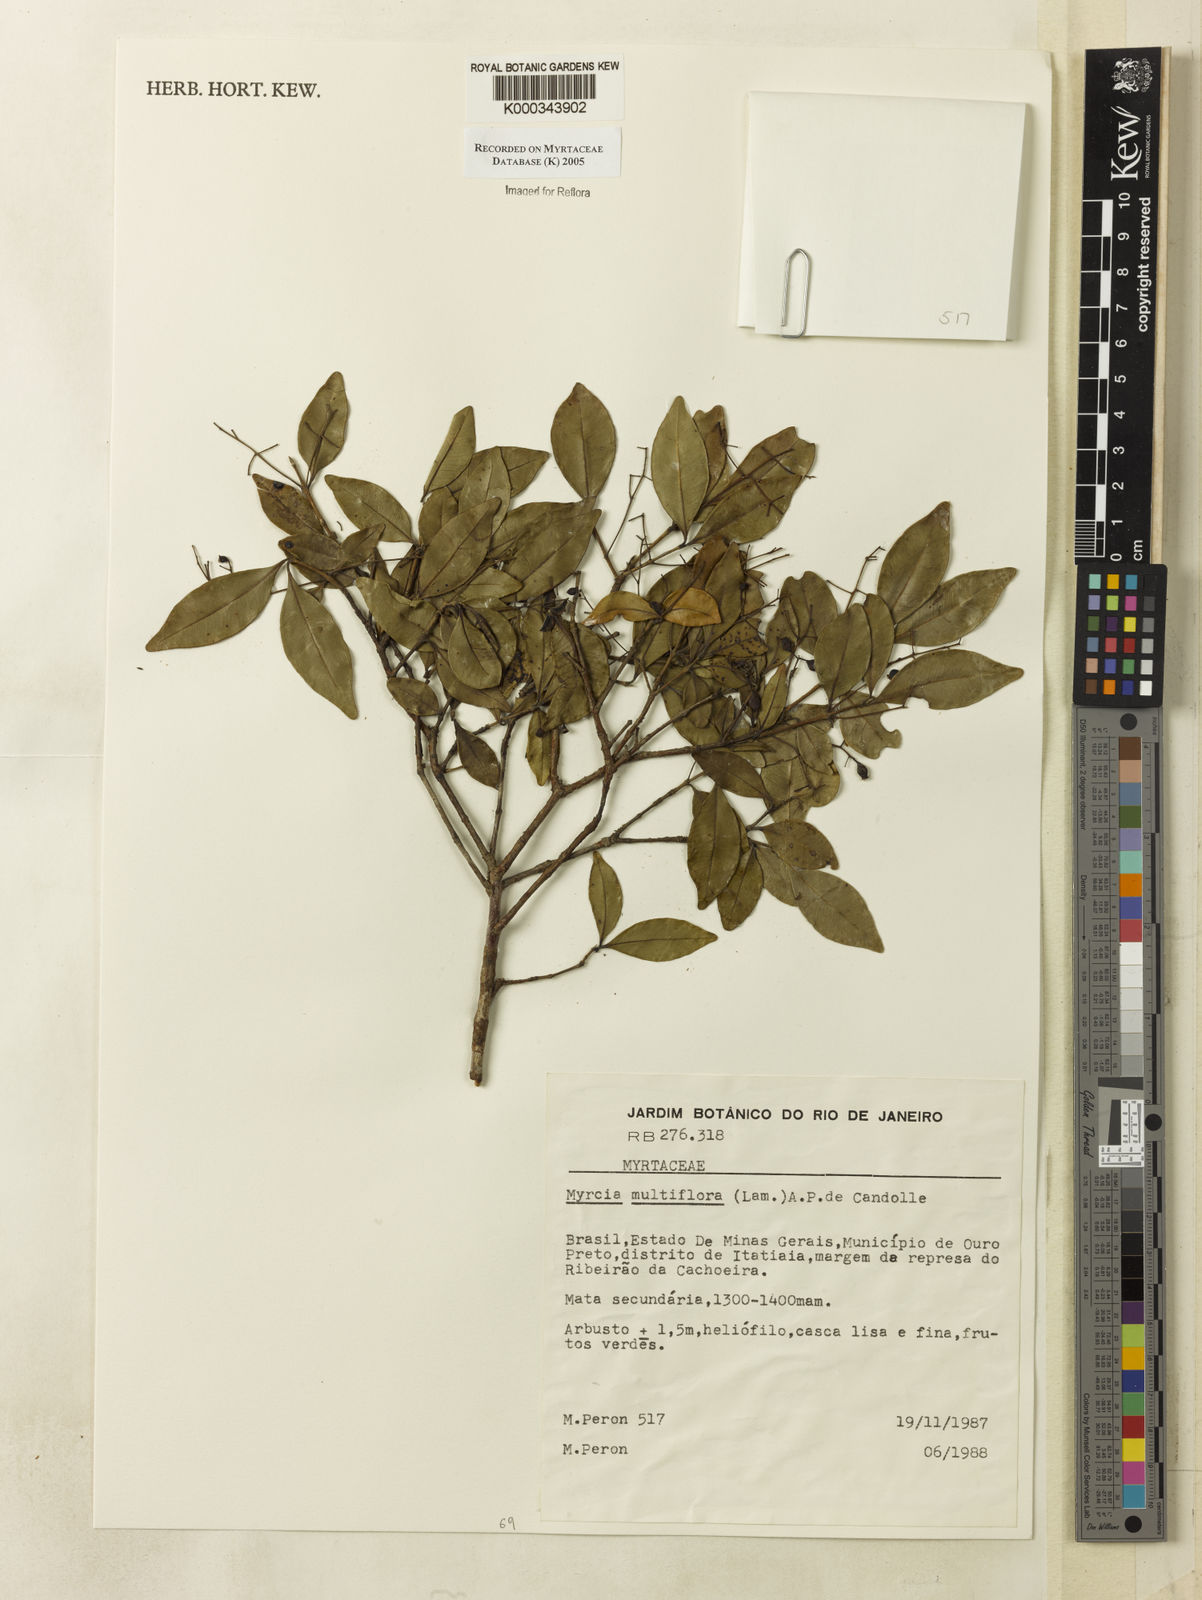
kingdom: Plantae
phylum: Tracheophyta
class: Magnoliopsida
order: Myrtales
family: Myrtaceae
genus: Myrcia
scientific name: Myrcia multiflora
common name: Pedra hume
